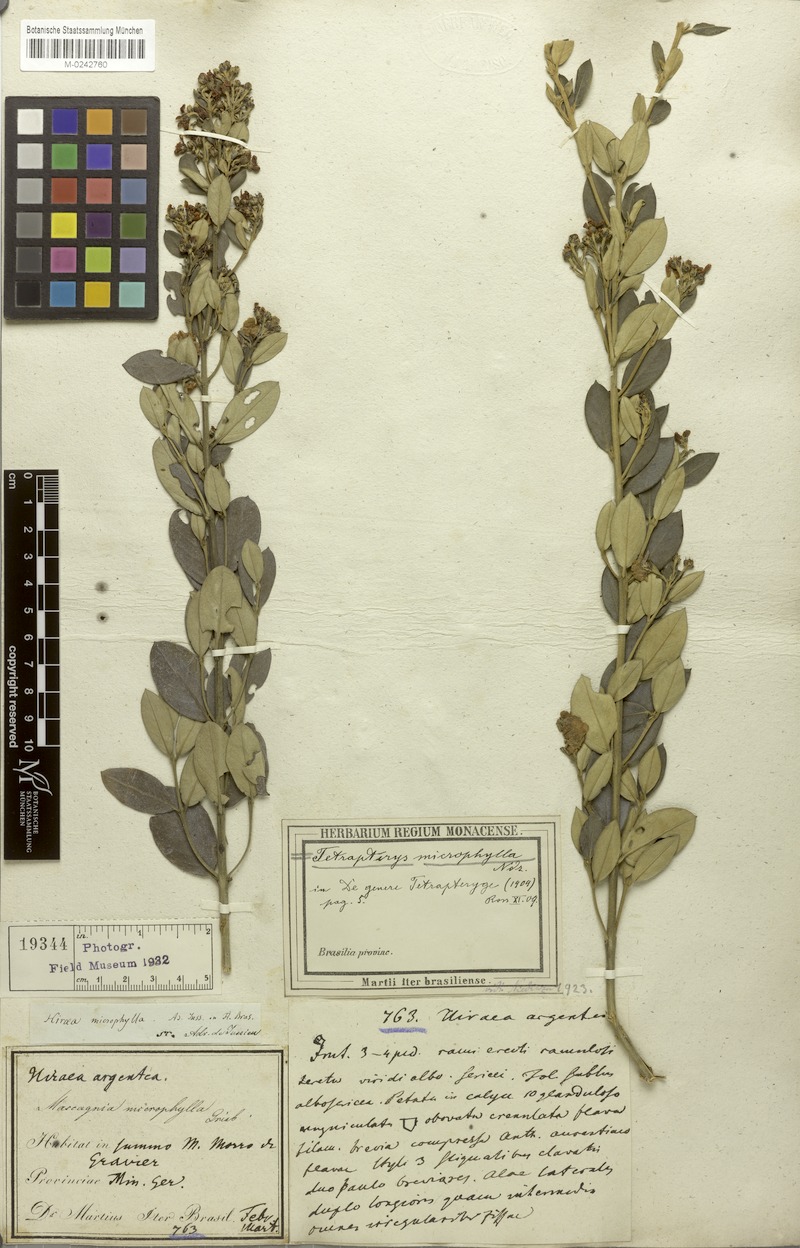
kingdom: Plantae
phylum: Tracheophyta
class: Magnoliopsida
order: Malpighiales
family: Malpighiaceae
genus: Glicophyllum
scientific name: Glicophyllum microphyllum
